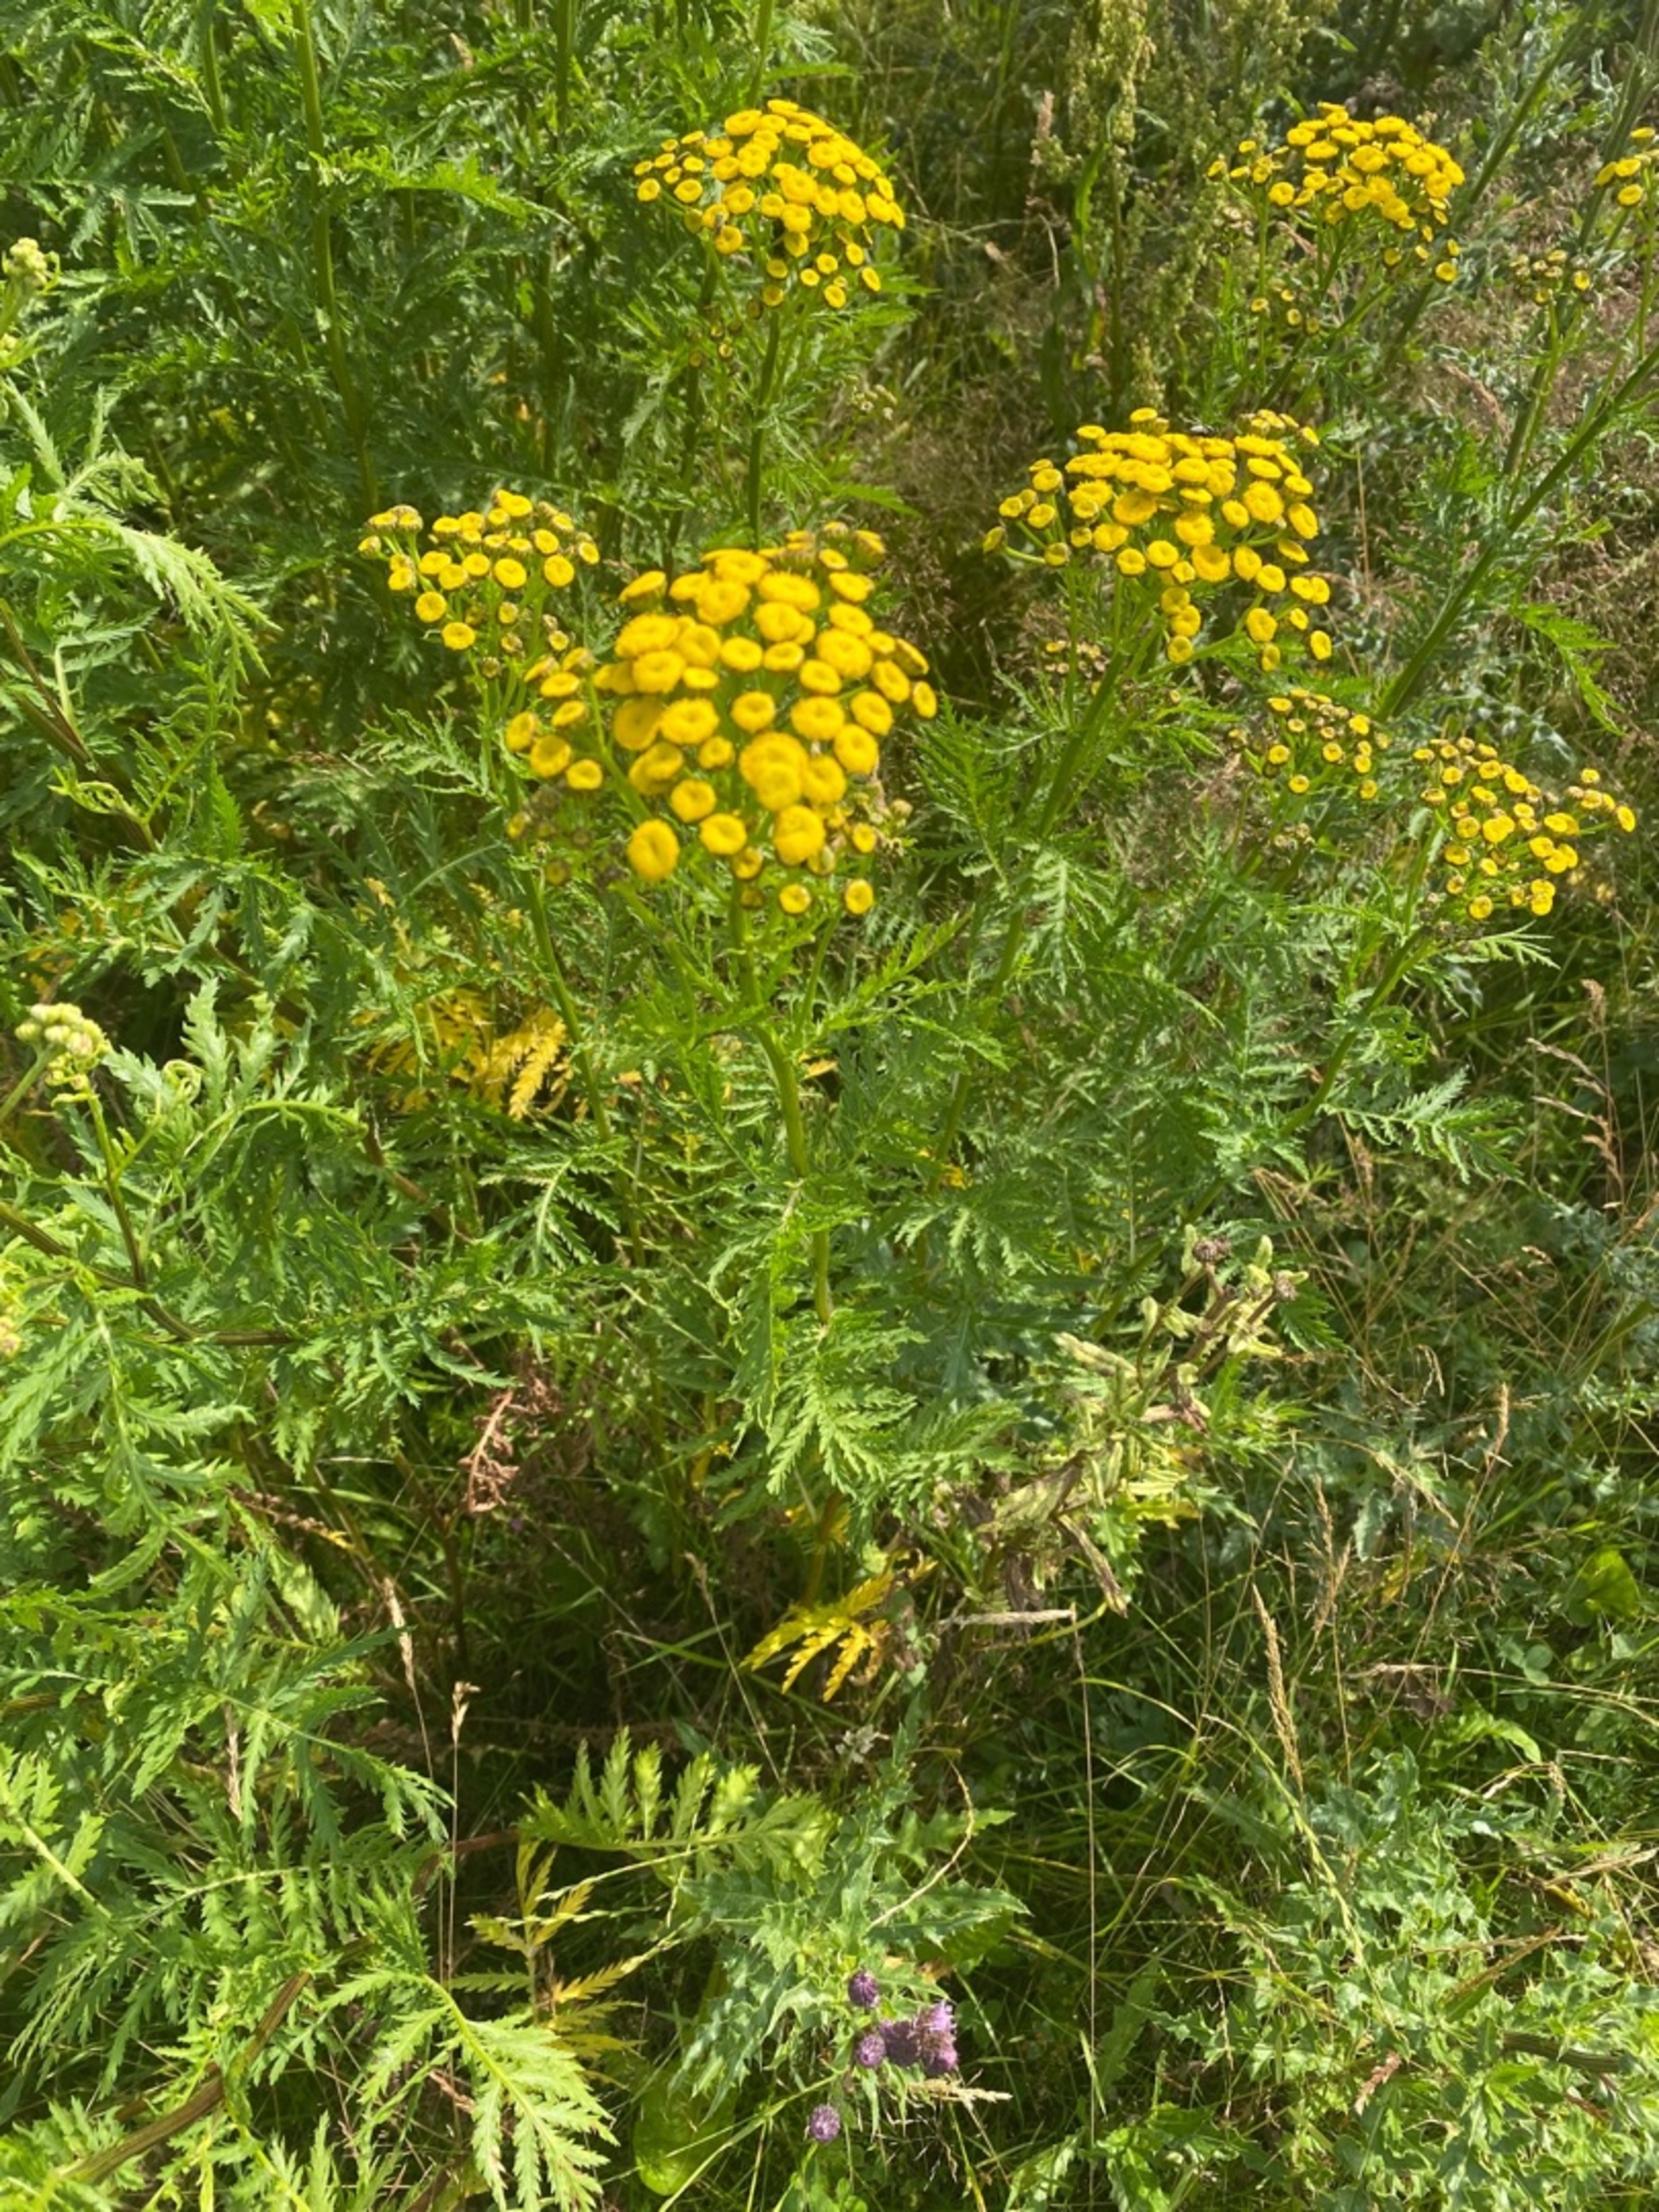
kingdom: Plantae
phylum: Tracheophyta
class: Magnoliopsida
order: Asterales
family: Asteraceae
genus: Tanacetum
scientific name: Tanacetum vulgare
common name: Rejnfan
